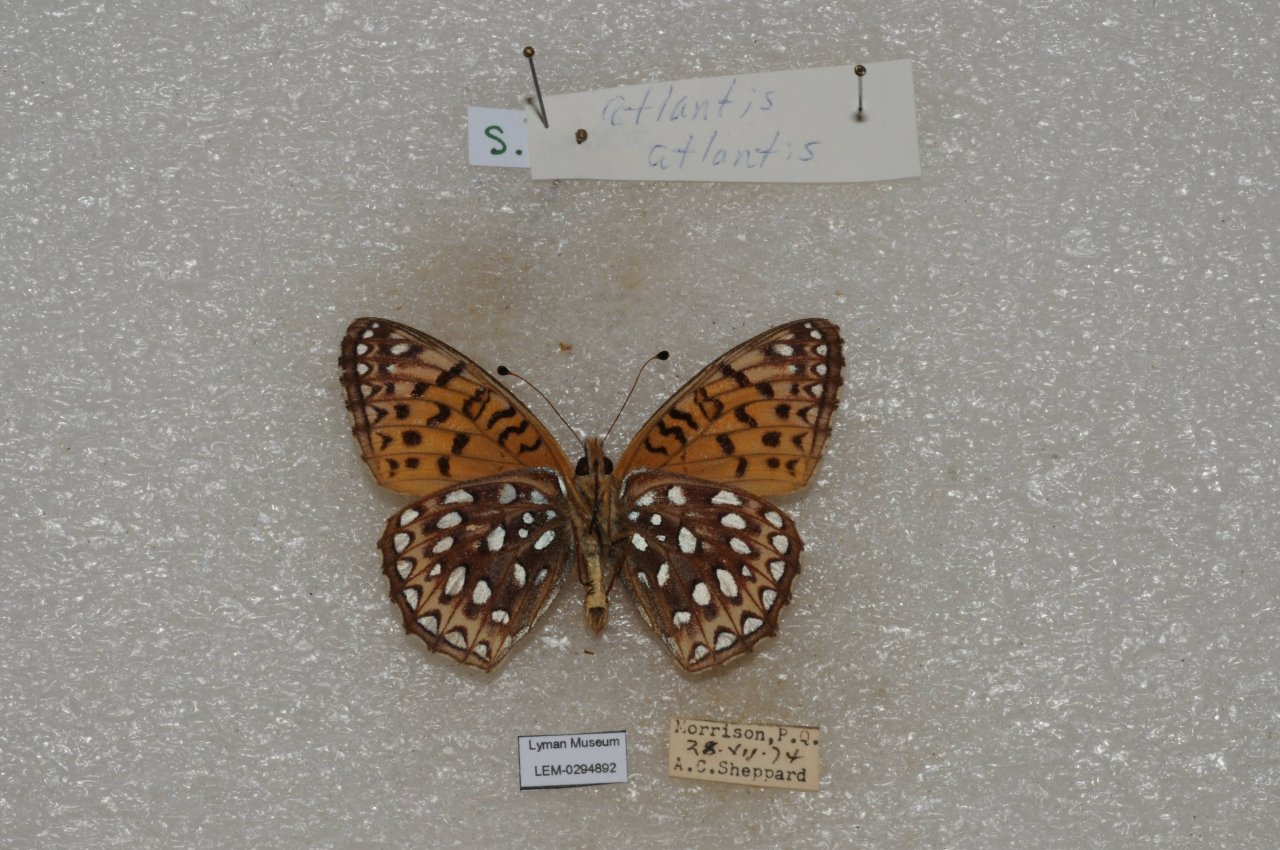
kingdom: Animalia
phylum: Arthropoda
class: Insecta
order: Lepidoptera
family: Nymphalidae
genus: Speyeria
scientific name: Speyeria atlantis
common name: Atlantis Fritillary
